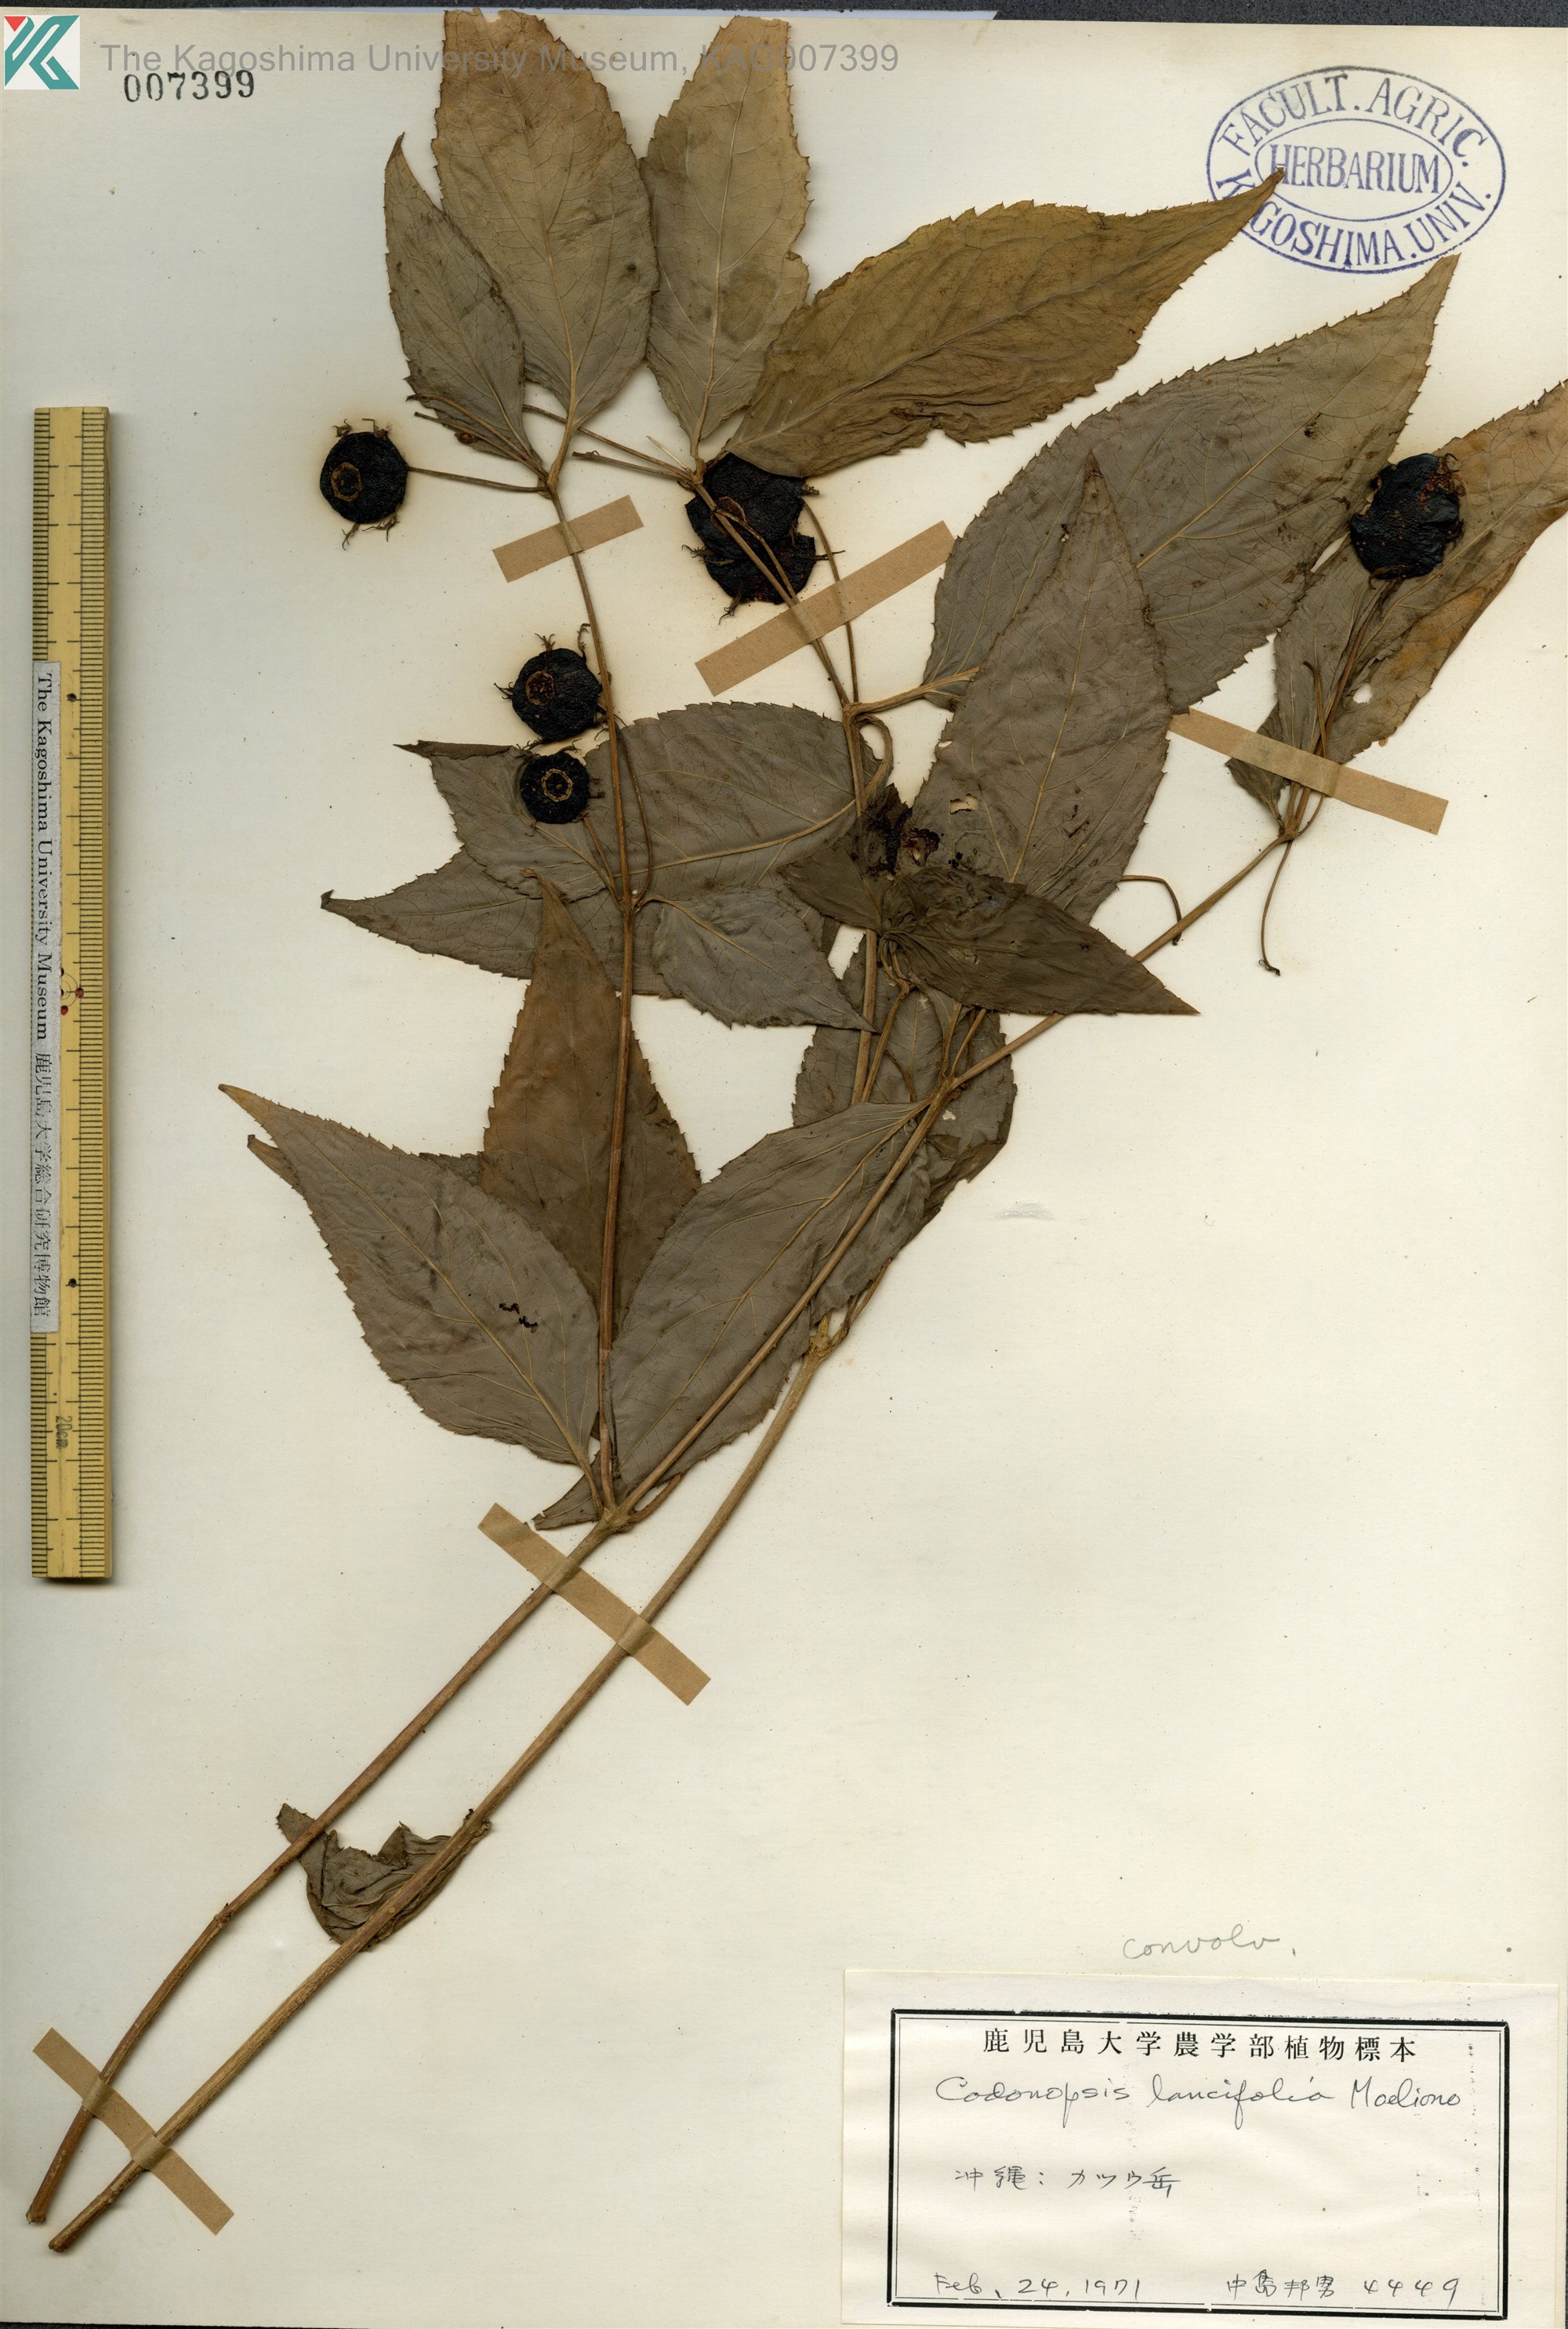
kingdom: Plantae
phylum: Tracheophyta
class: Magnoliopsida
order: Asterales
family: Campanulaceae
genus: Cyclocodon
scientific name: Cyclocodon lancifolius
